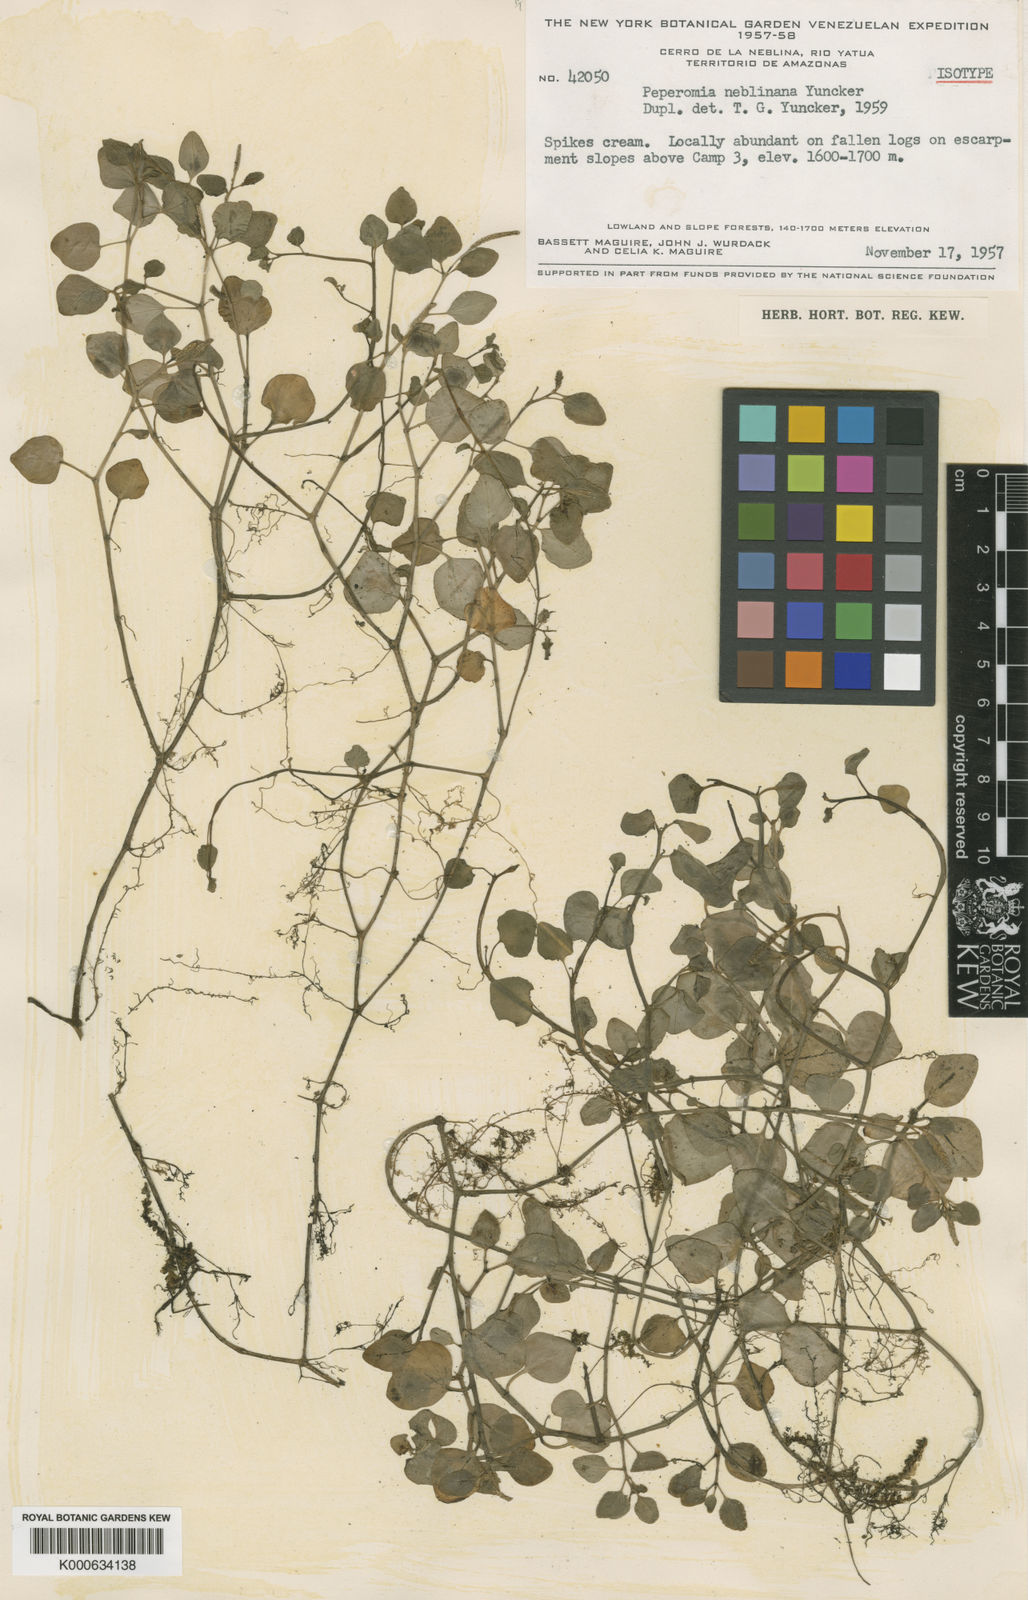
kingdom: Plantae
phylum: Tracheophyta
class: Magnoliopsida
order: Piperales
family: Piperaceae
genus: Peperomia
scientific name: Peperomia neblinana
